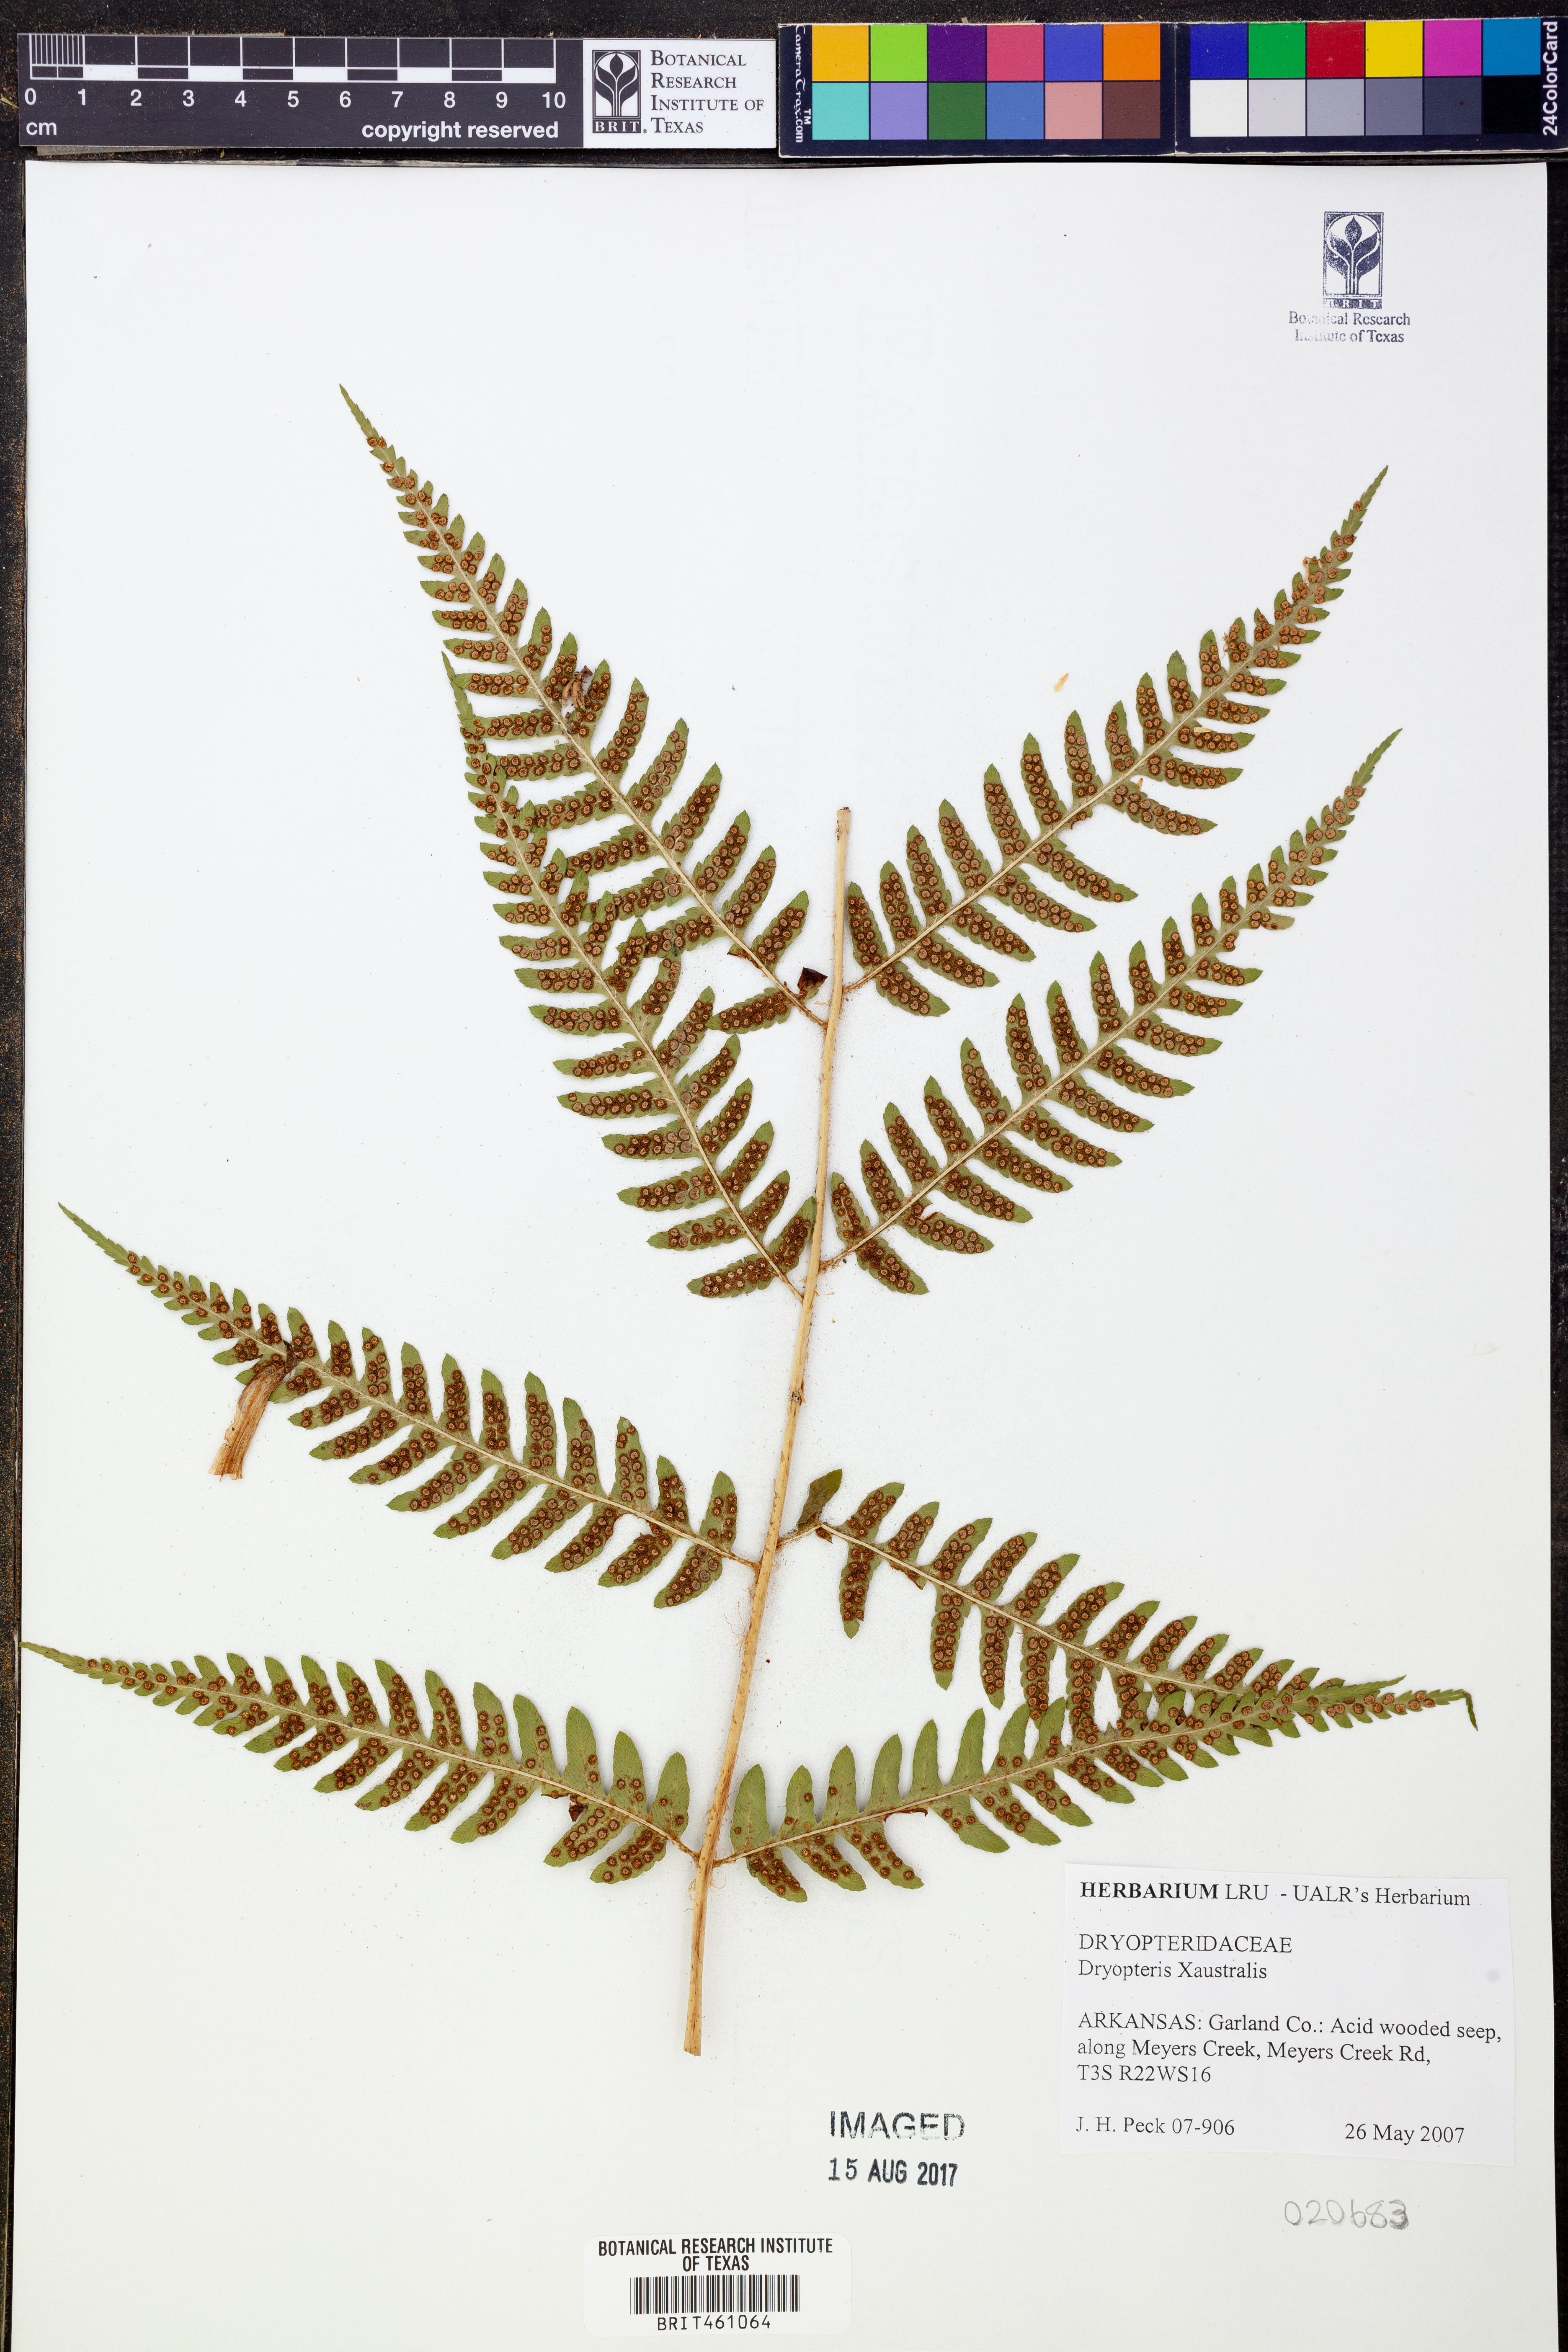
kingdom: Plantae
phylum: Tracheophyta
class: Polypodiopsida
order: Polypodiales
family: Dryopteridaceae
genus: Dryopteris
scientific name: Dryopteris australis
